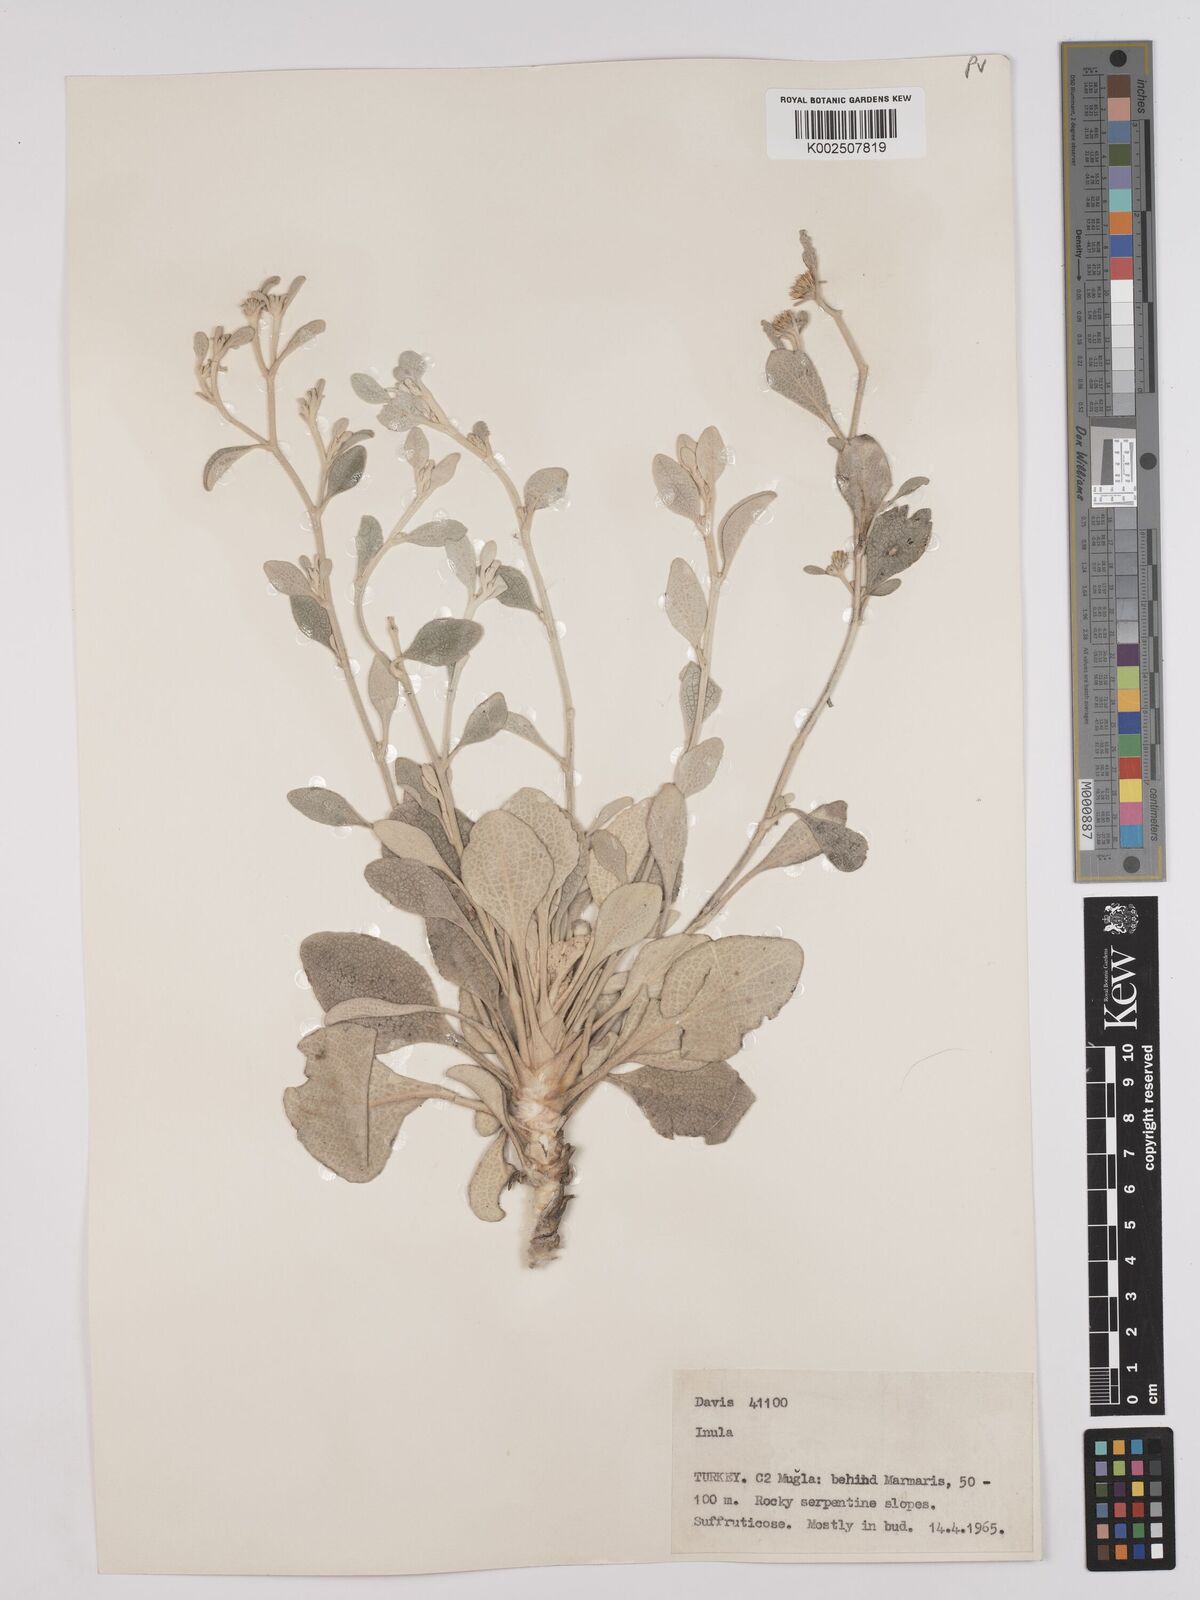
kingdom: Plantae
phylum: Tracheophyta
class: Magnoliopsida
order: Asterales
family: Asteraceae
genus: Pentanema
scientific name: Pentanema verbascifolium
